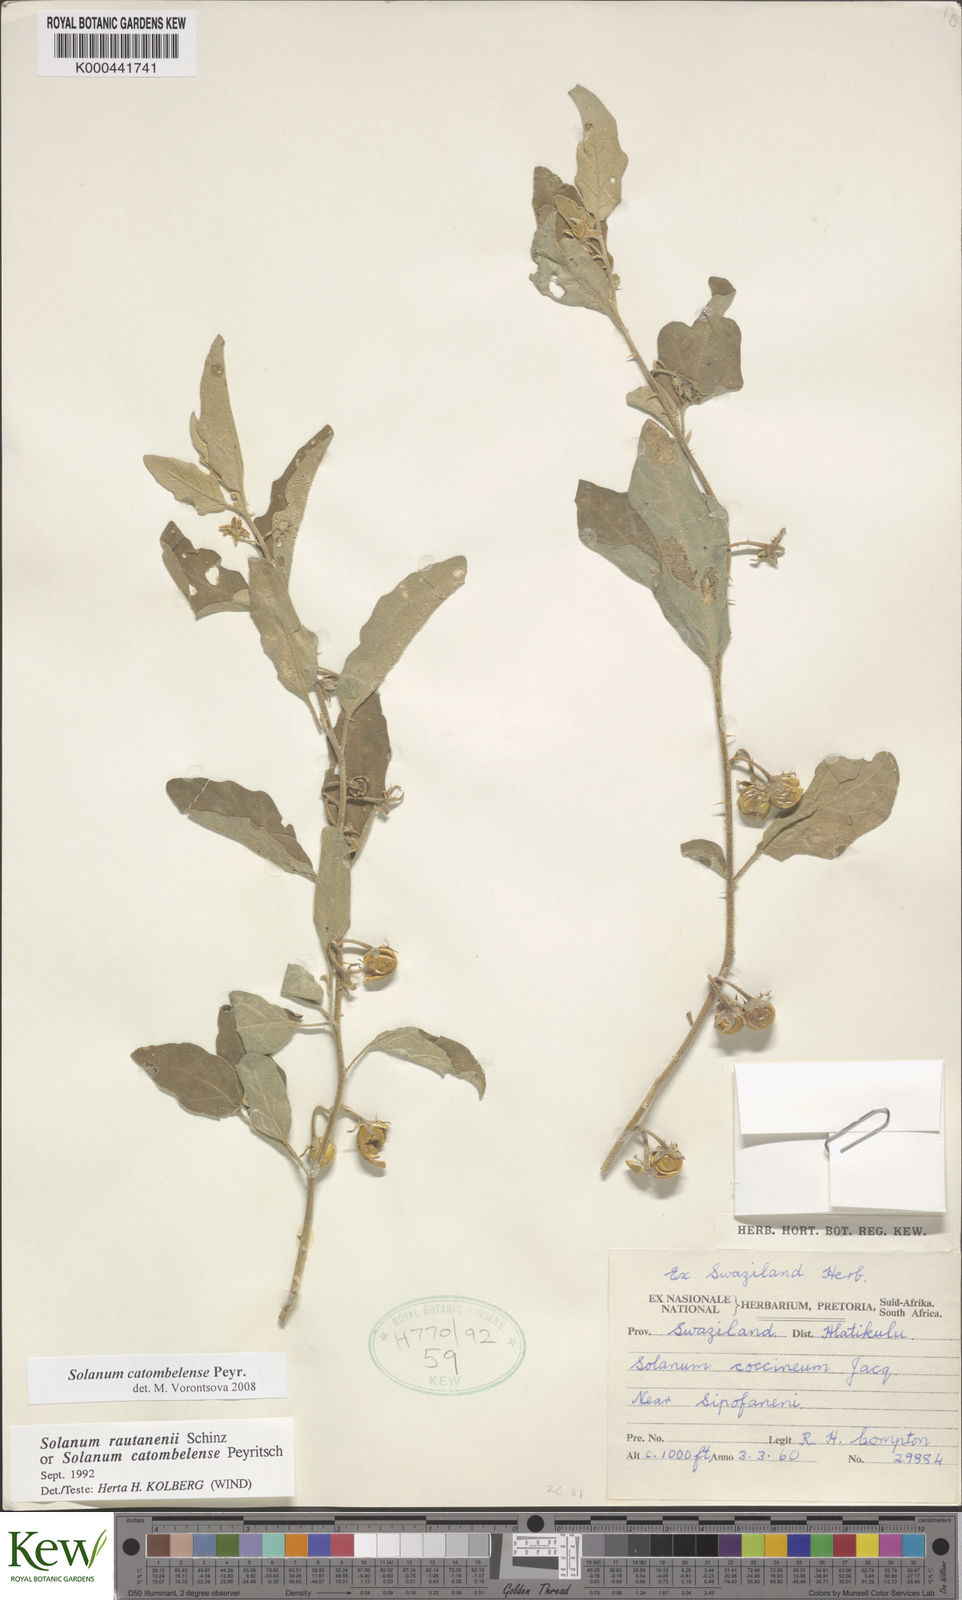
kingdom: Plantae
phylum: Tracheophyta
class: Magnoliopsida
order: Solanales
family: Solanaceae
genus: Solanum
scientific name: Solanum catombelense
